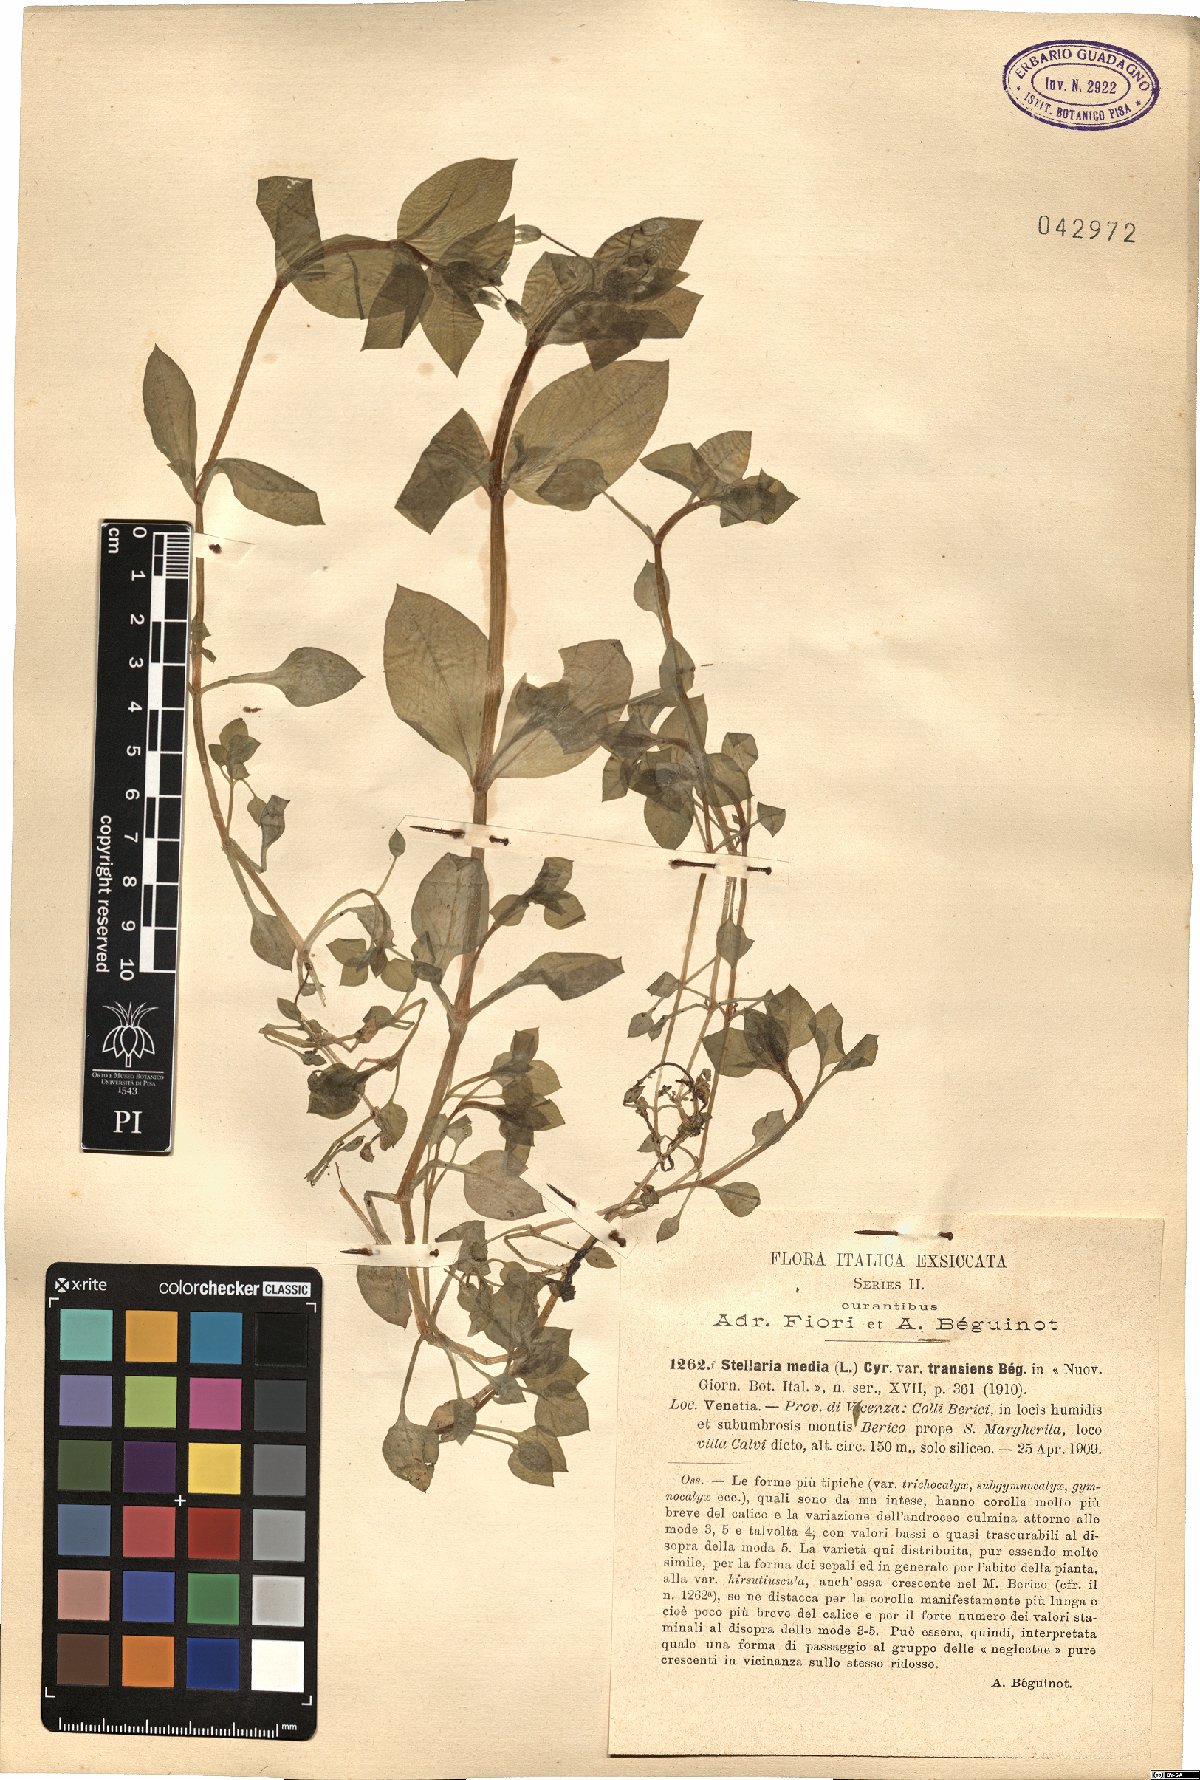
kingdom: Plantae
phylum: Tracheophyta
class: Magnoliopsida
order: Caryophyllales
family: Caryophyllaceae
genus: Stellaria
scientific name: Stellaria media
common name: Common chickweed
